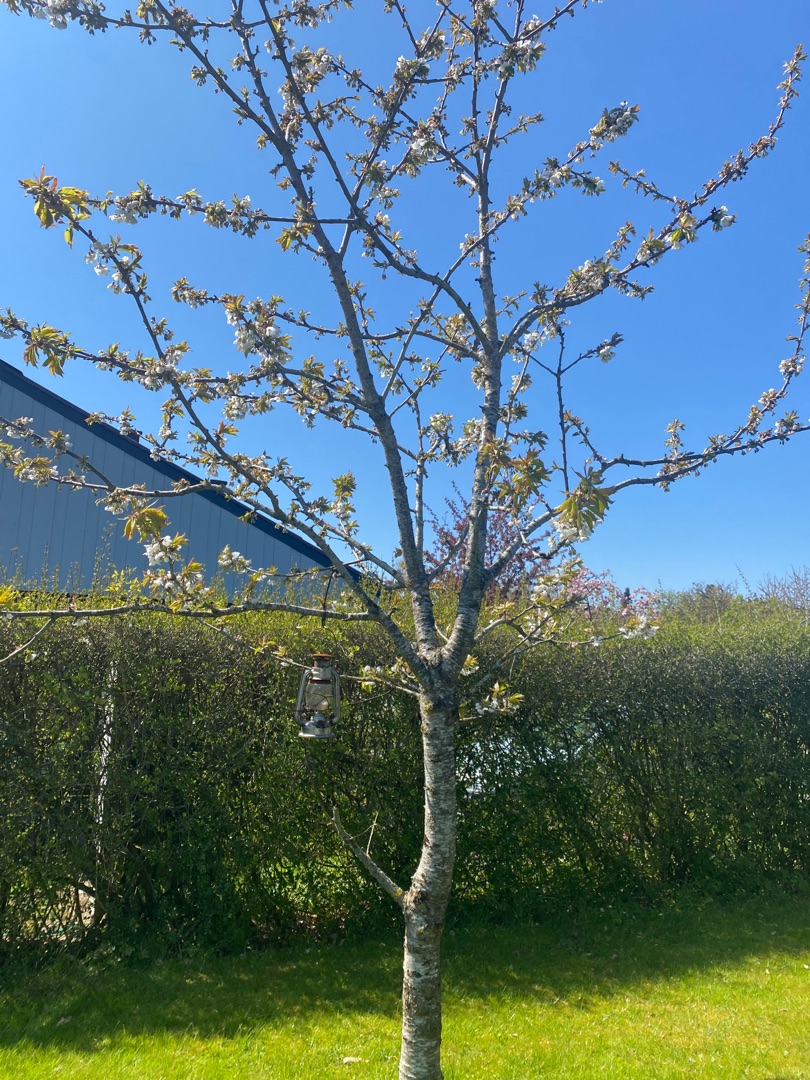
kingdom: Plantae
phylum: Tracheophyta
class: Magnoliopsida
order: Rosales
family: Rosaceae
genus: Prunus
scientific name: Prunus avium
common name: Fugle-kirsebær
